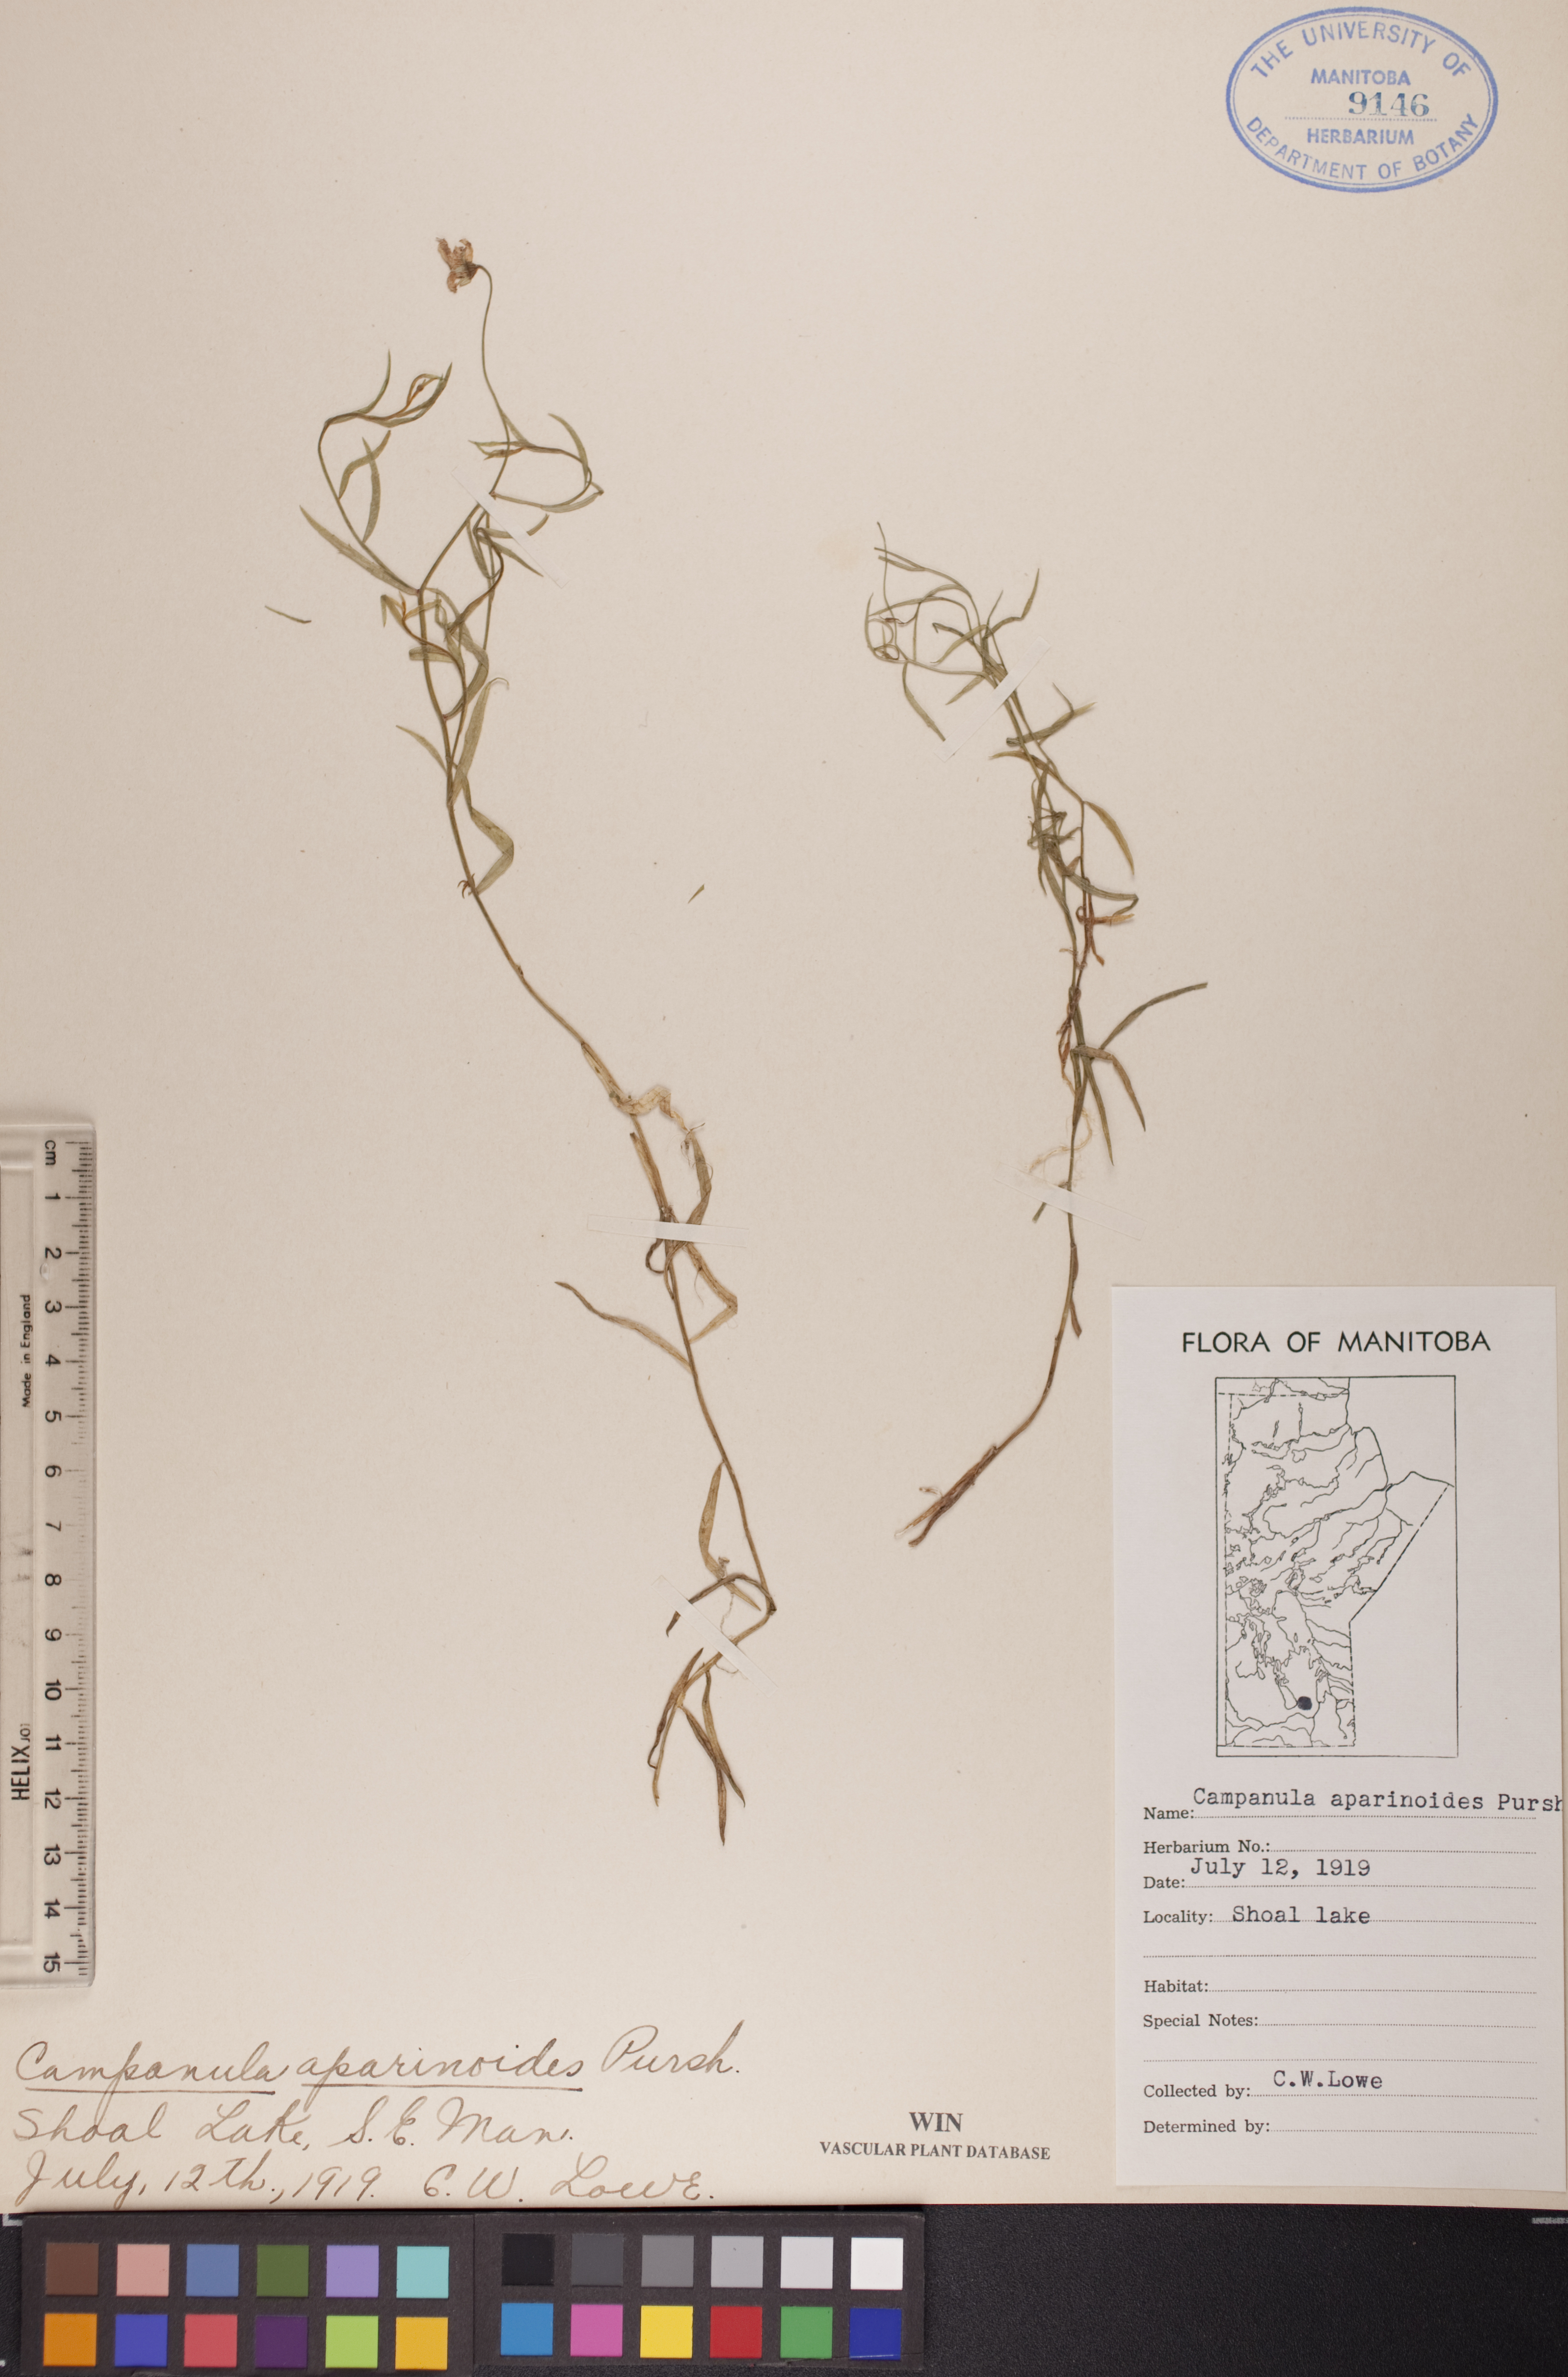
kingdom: Plantae
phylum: Tracheophyta
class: Magnoliopsida
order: Asterales
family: Campanulaceae
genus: Palustricodon
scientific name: Palustricodon aparinoides
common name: Bedstraw bellflower
